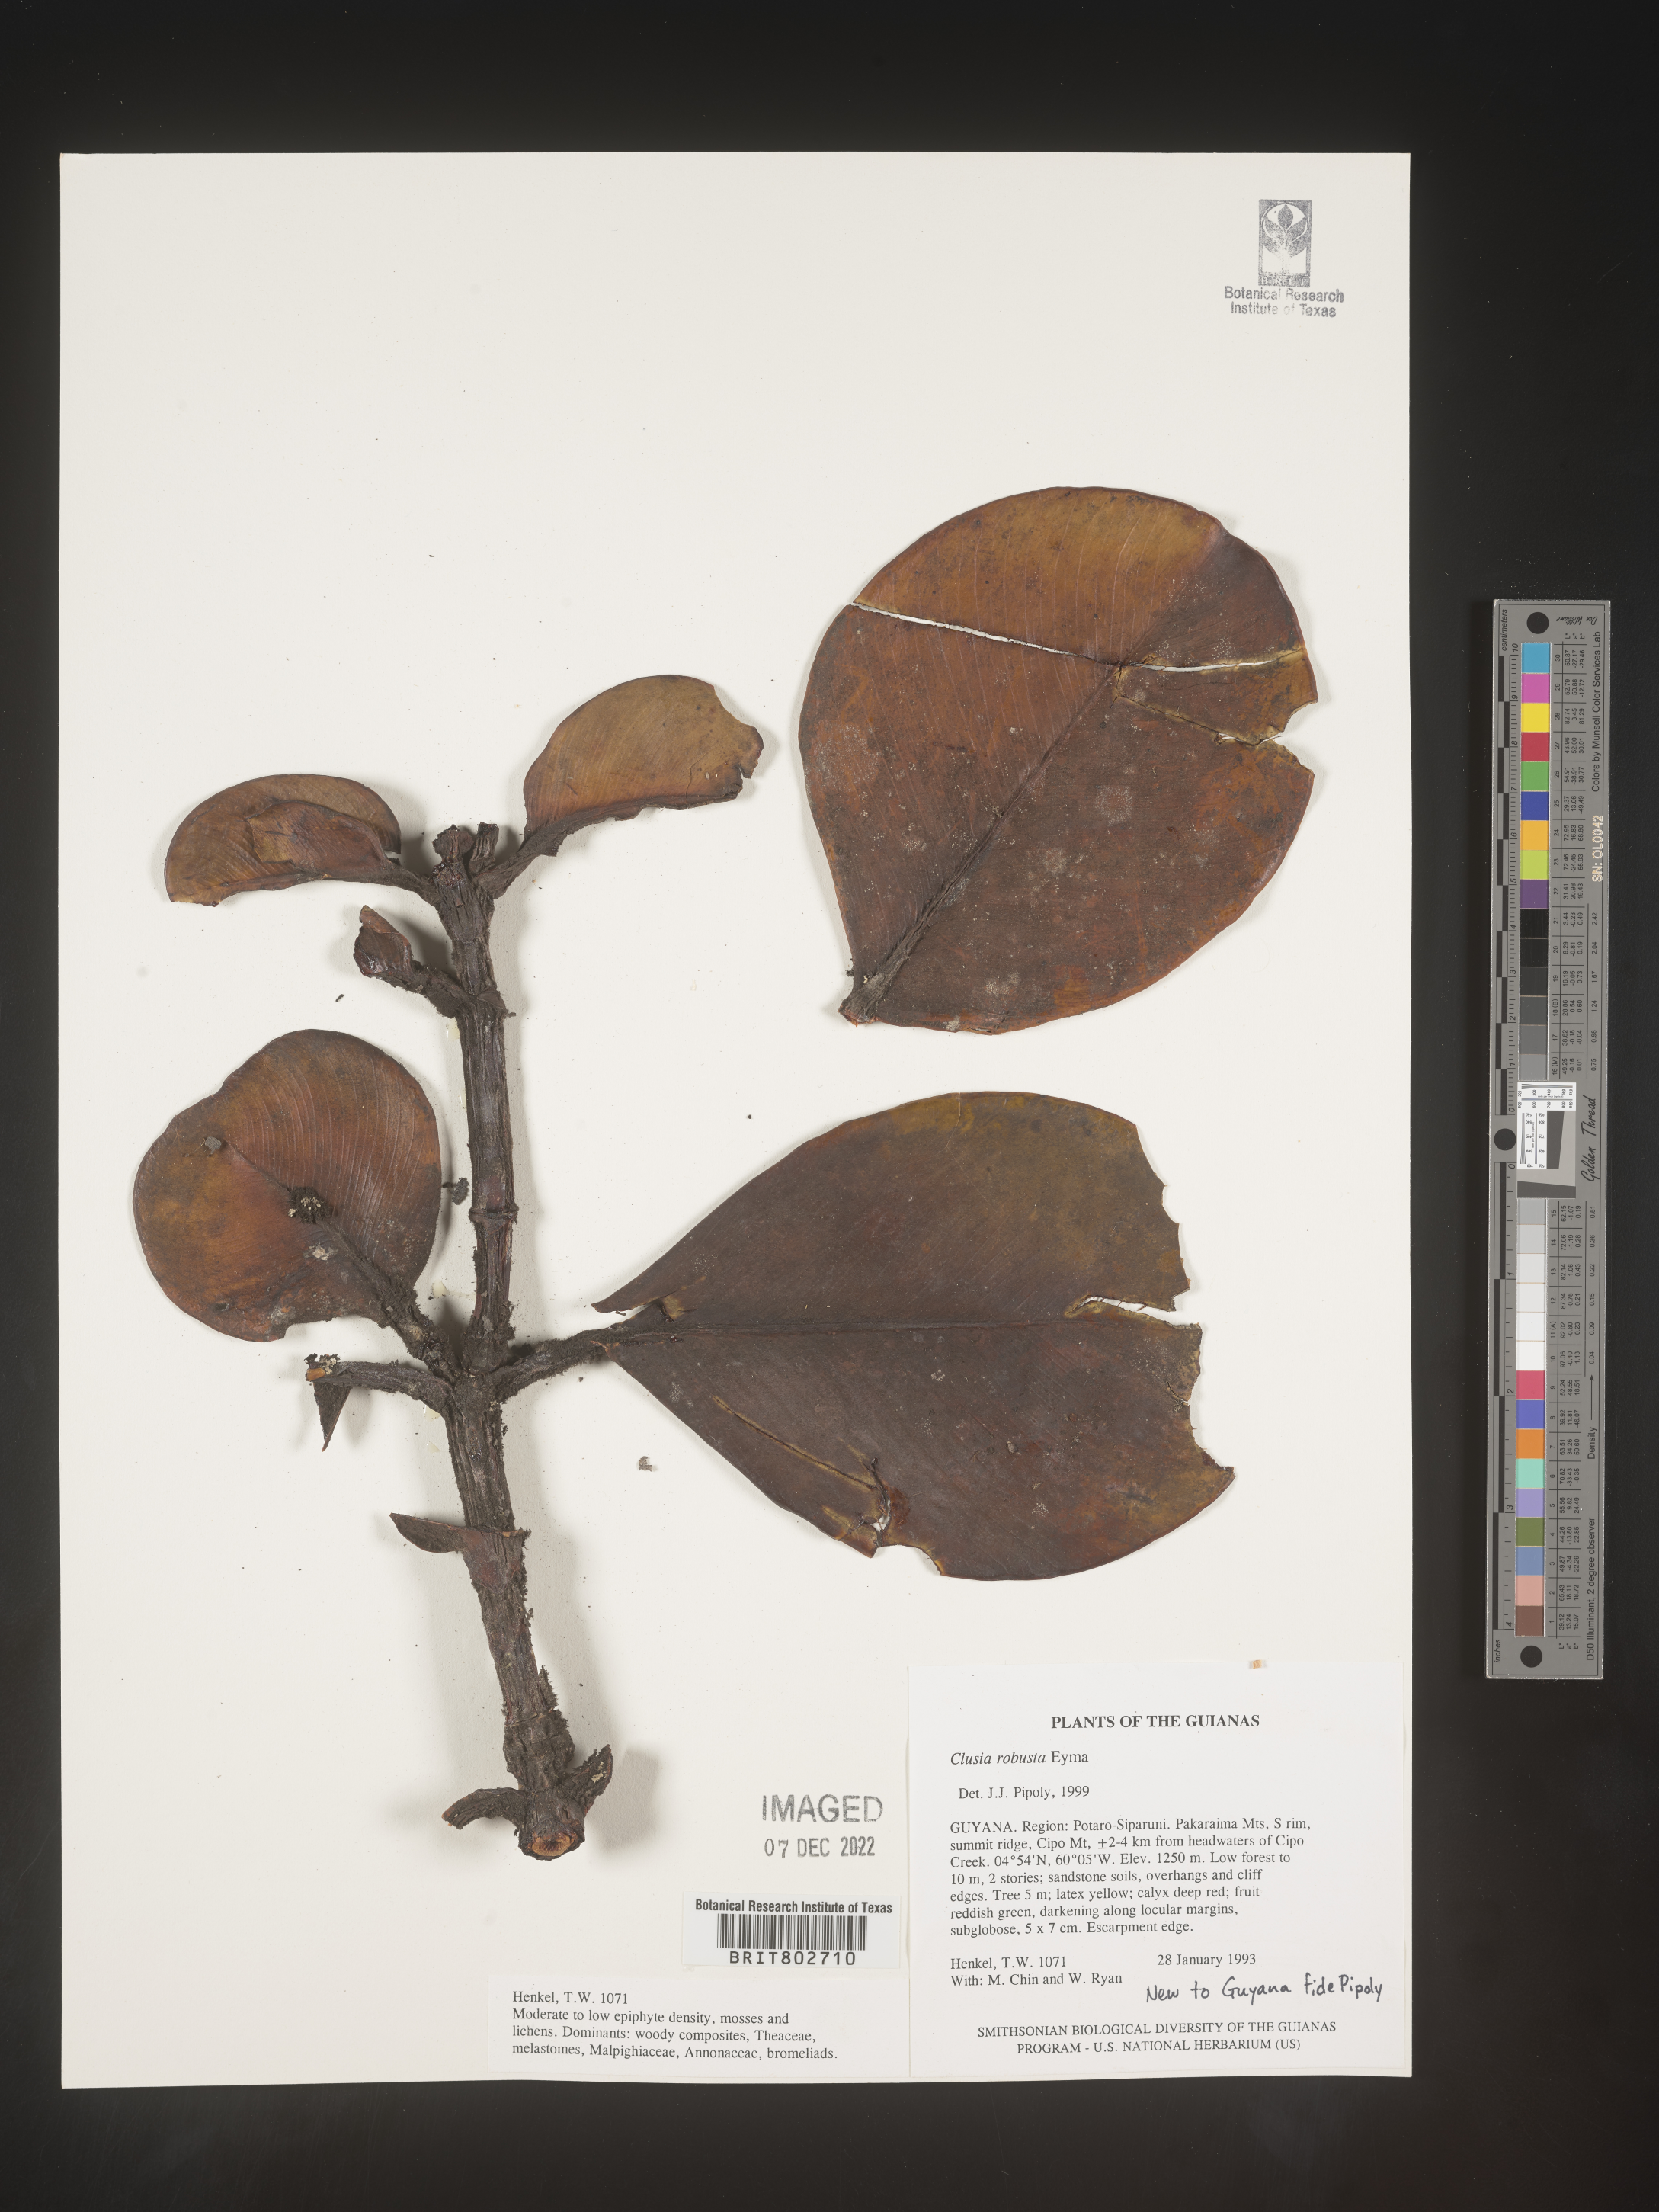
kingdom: Plantae
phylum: Tracheophyta
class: Magnoliopsida
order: Malpighiales
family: Clusiaceae
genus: Clusia
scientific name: Clusia
